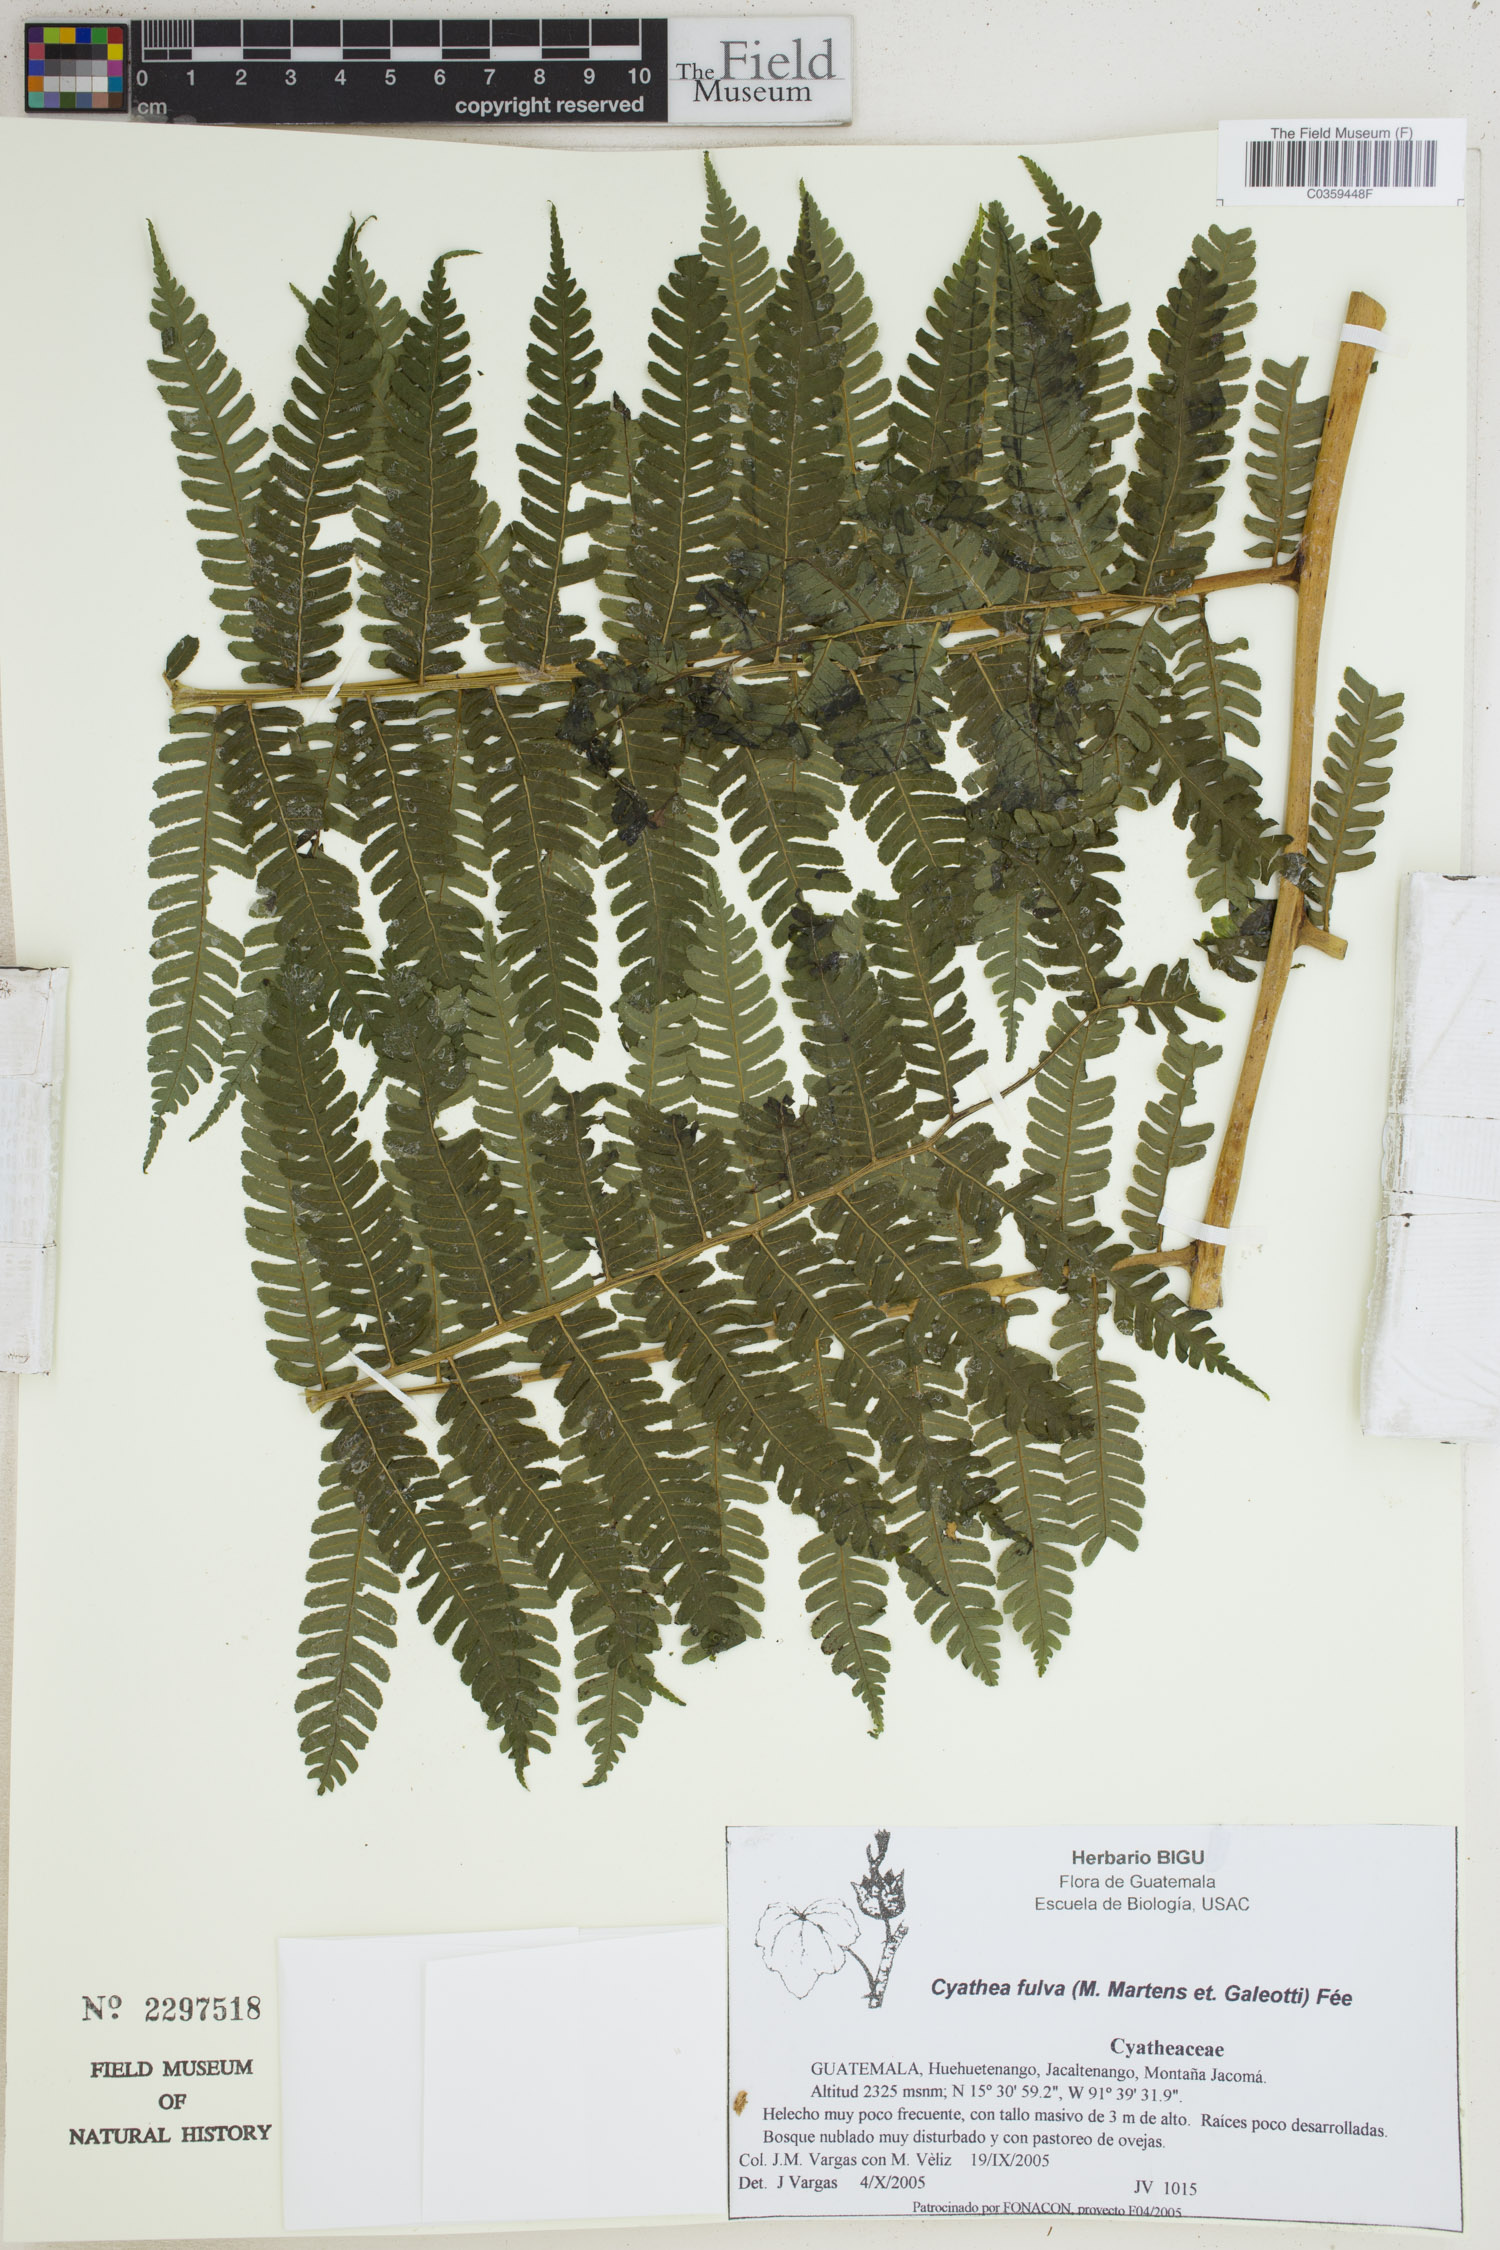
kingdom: Plantae
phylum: Tracheophyta
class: Polypodiopsida
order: Cyatheales
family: Cyatheaceae
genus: Cyathea
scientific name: Cyathea fulva
